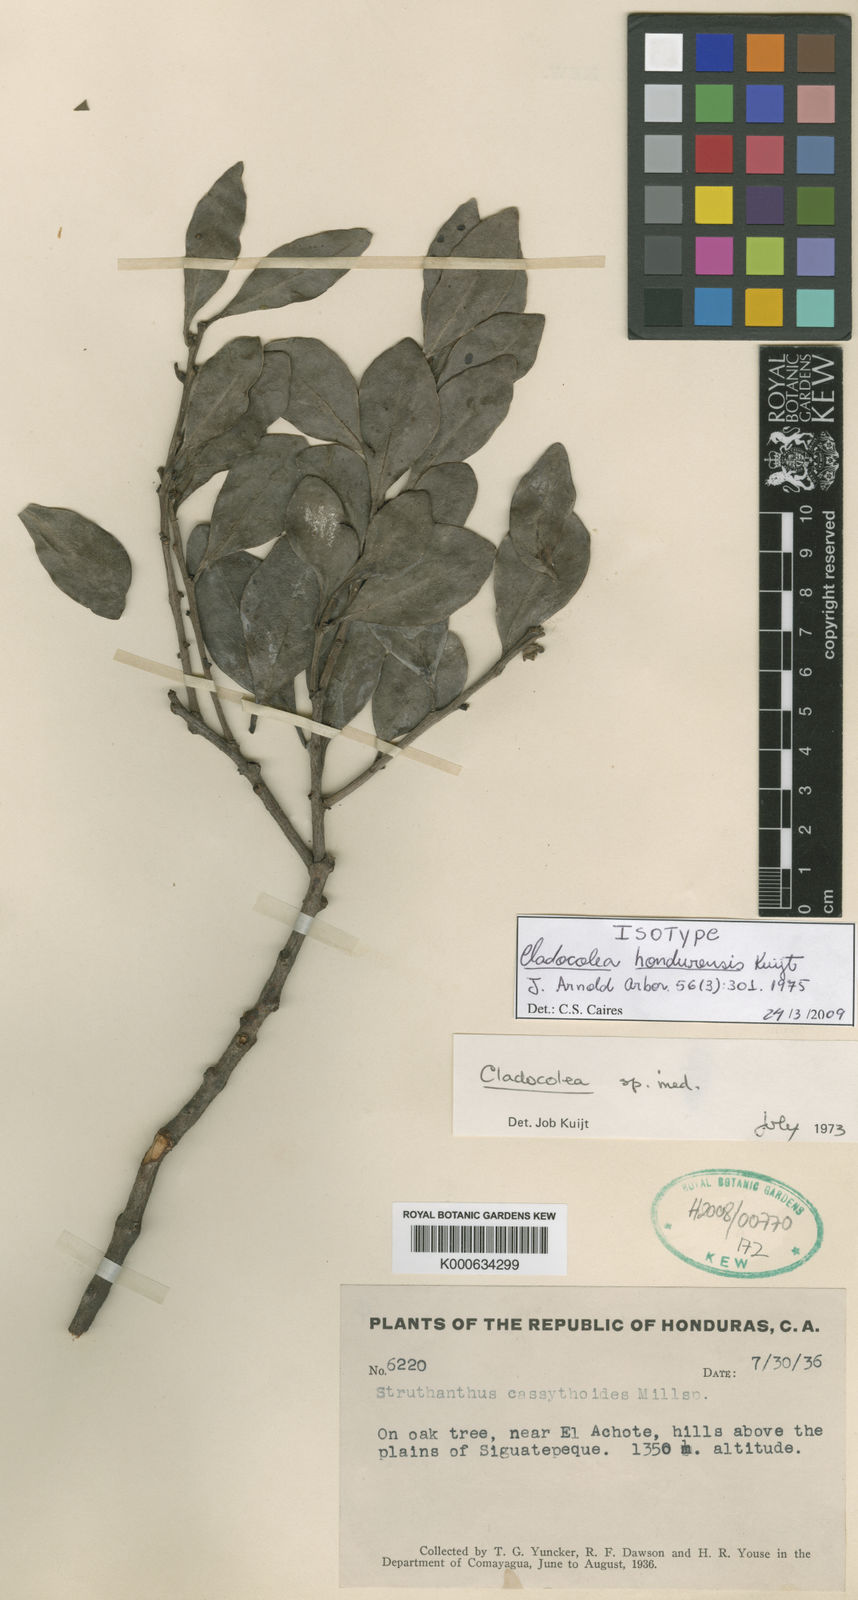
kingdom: Plantae
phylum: Tracheophyta
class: Magnoliopsida
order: Santalales
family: Loranthaceae
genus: Cladocolea
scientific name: Cladocolea hondurensis
